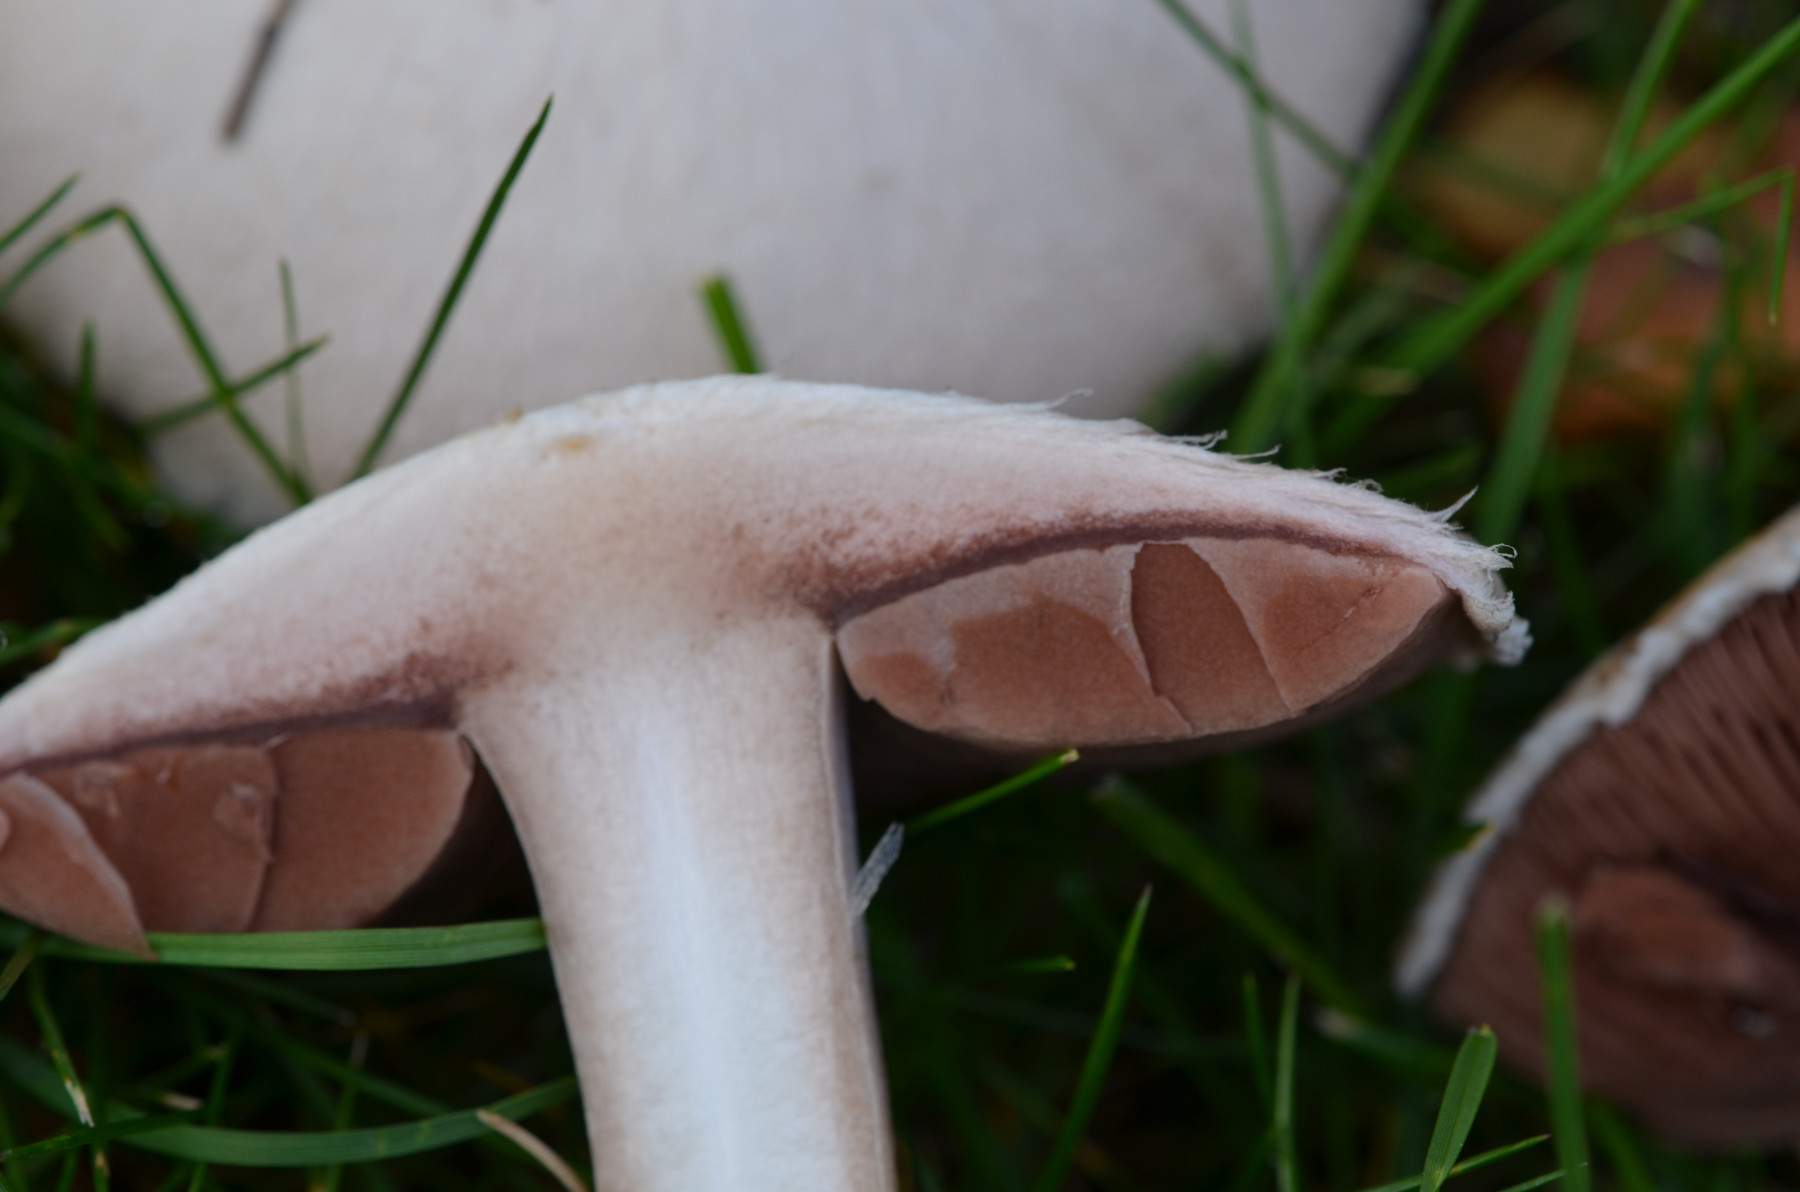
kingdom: Fungi
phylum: Basidiomycota
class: Agaricomycetes
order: Agaricales
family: Agaricaceae
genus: Agaricus
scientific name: Agaricus campestris
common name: mark-champignon
